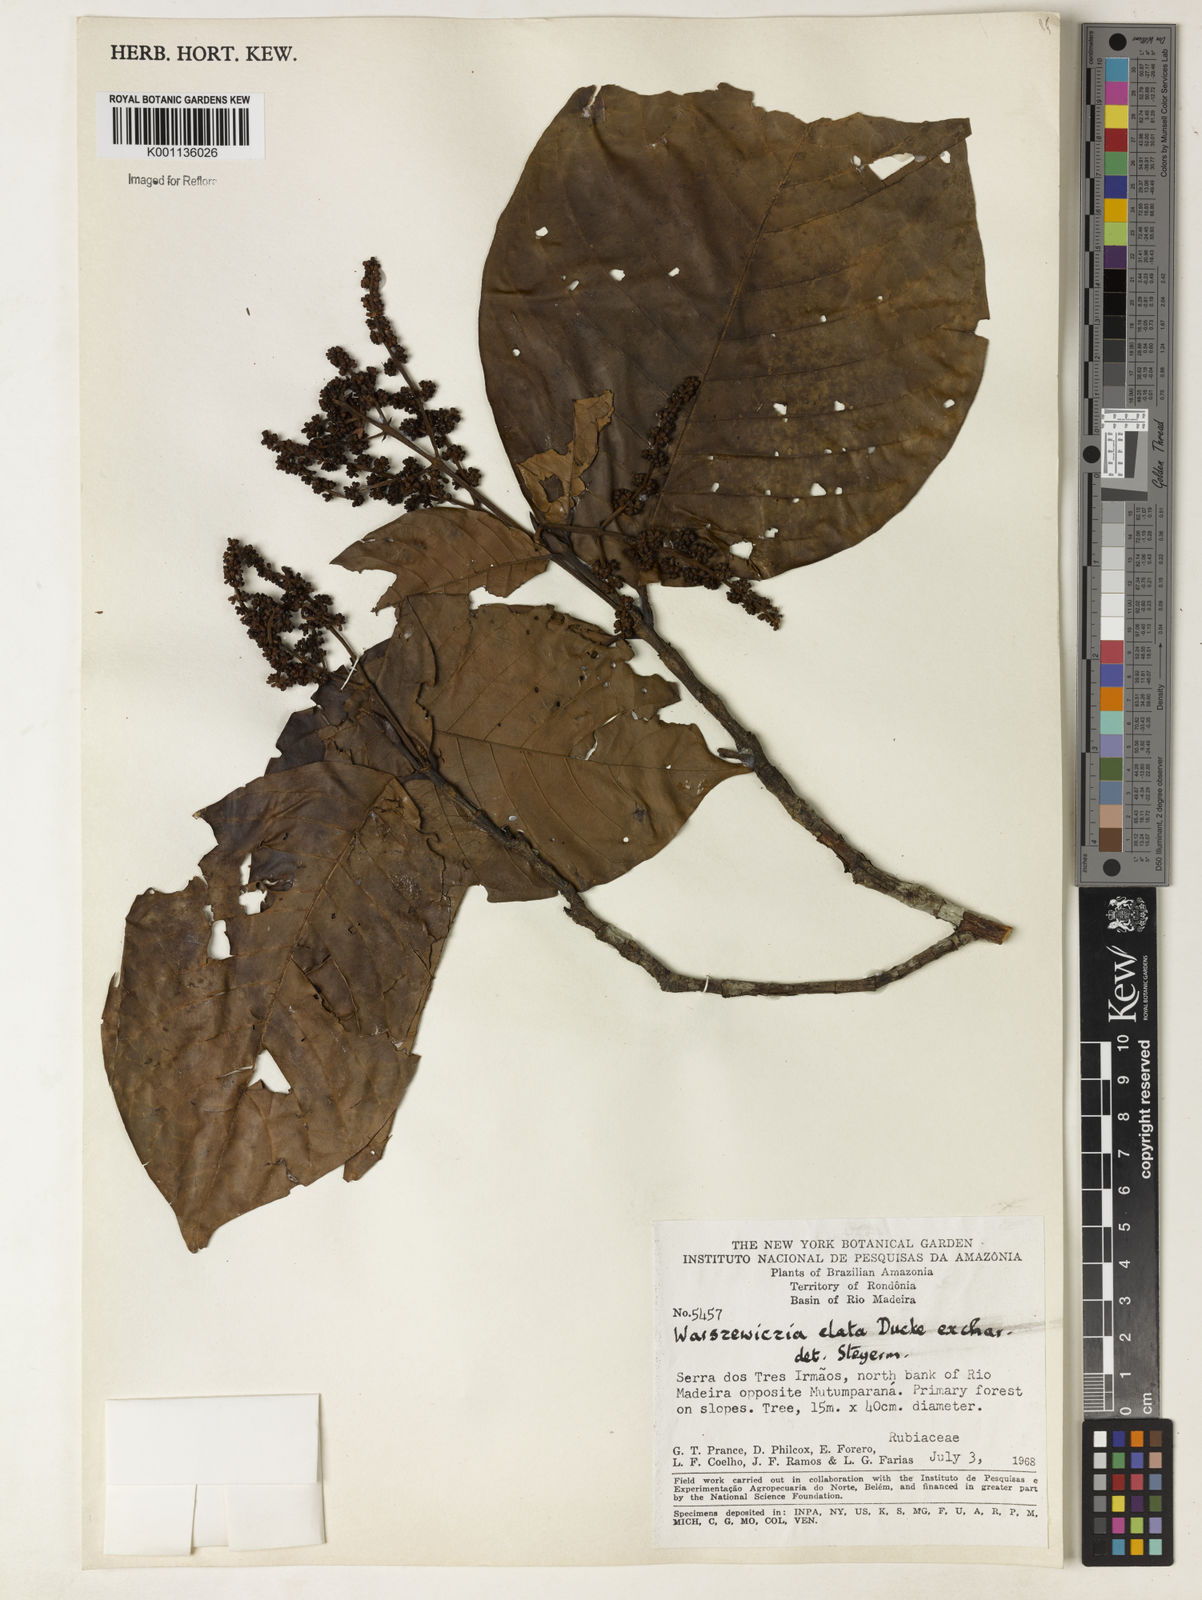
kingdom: Plantae
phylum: Tracheophyta
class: Magnoliopsida
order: Gentianales
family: Rubiaceae
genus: Warszewiczia
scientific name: Warszewiczia elata
